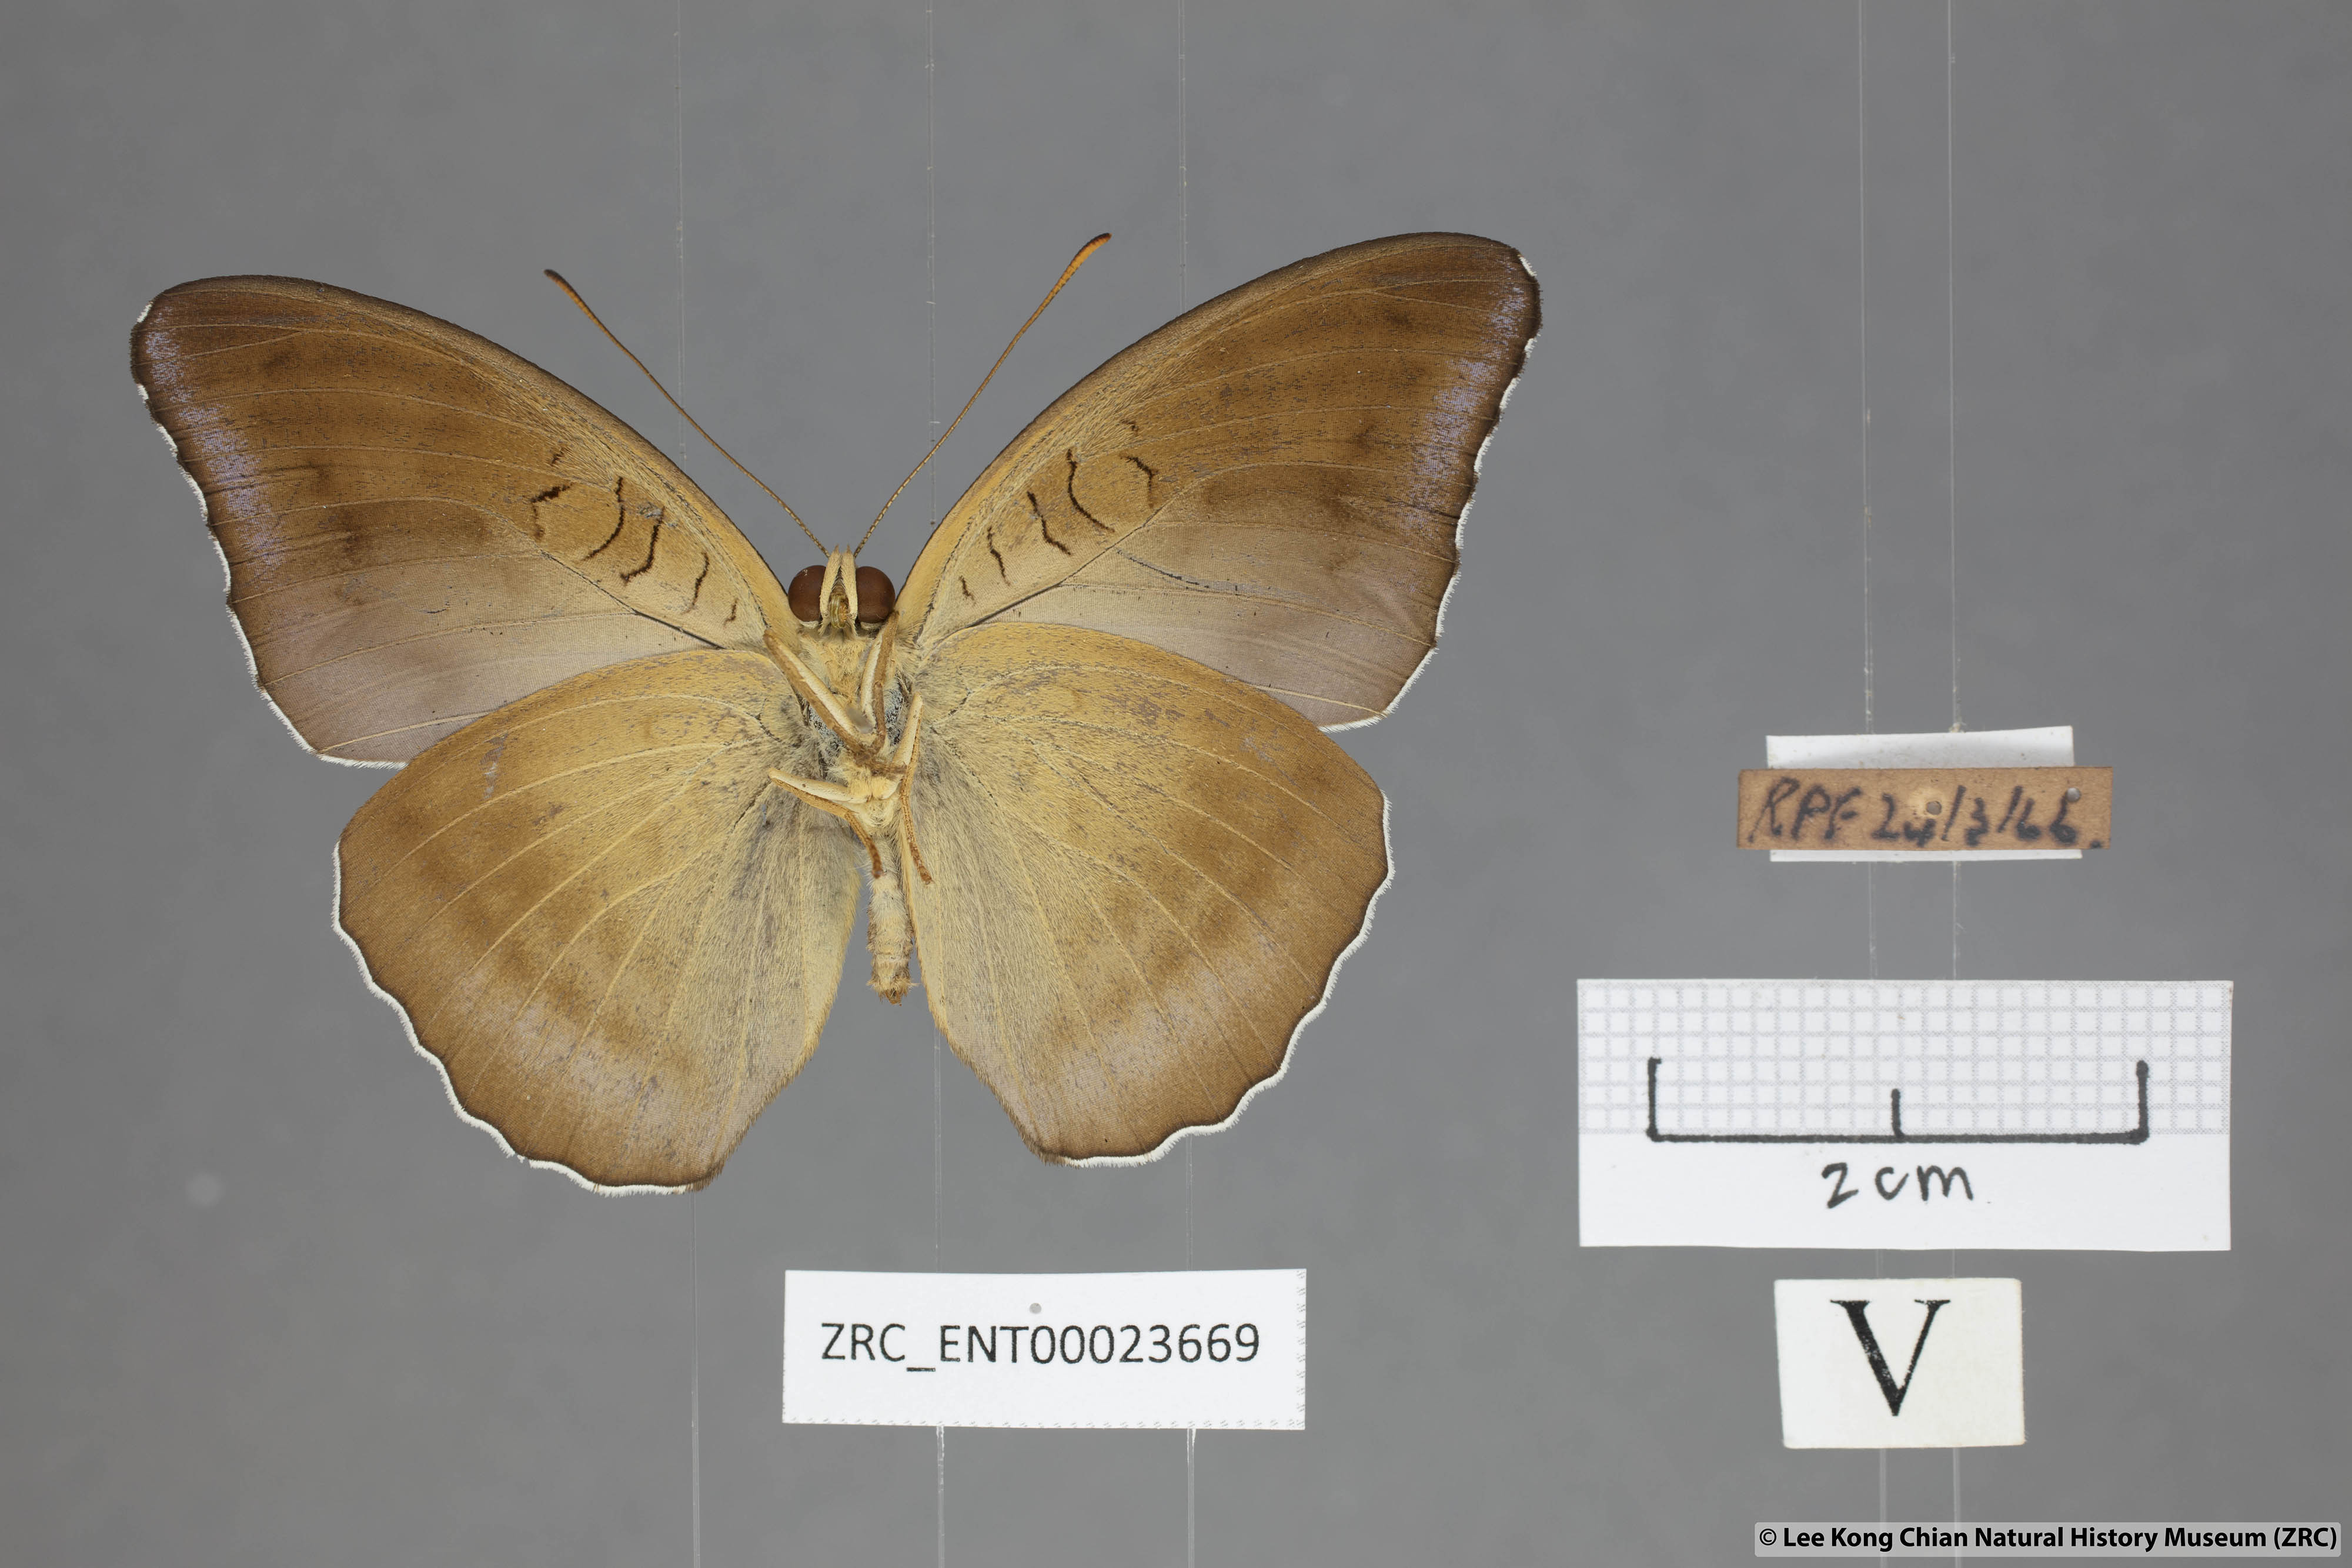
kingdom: Animalia
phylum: Arthropoda
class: Insecta
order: Lepidoptera
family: Nymphalidae
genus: Tanaecia
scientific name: Tanaecia iapis
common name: Horsfield's baron
